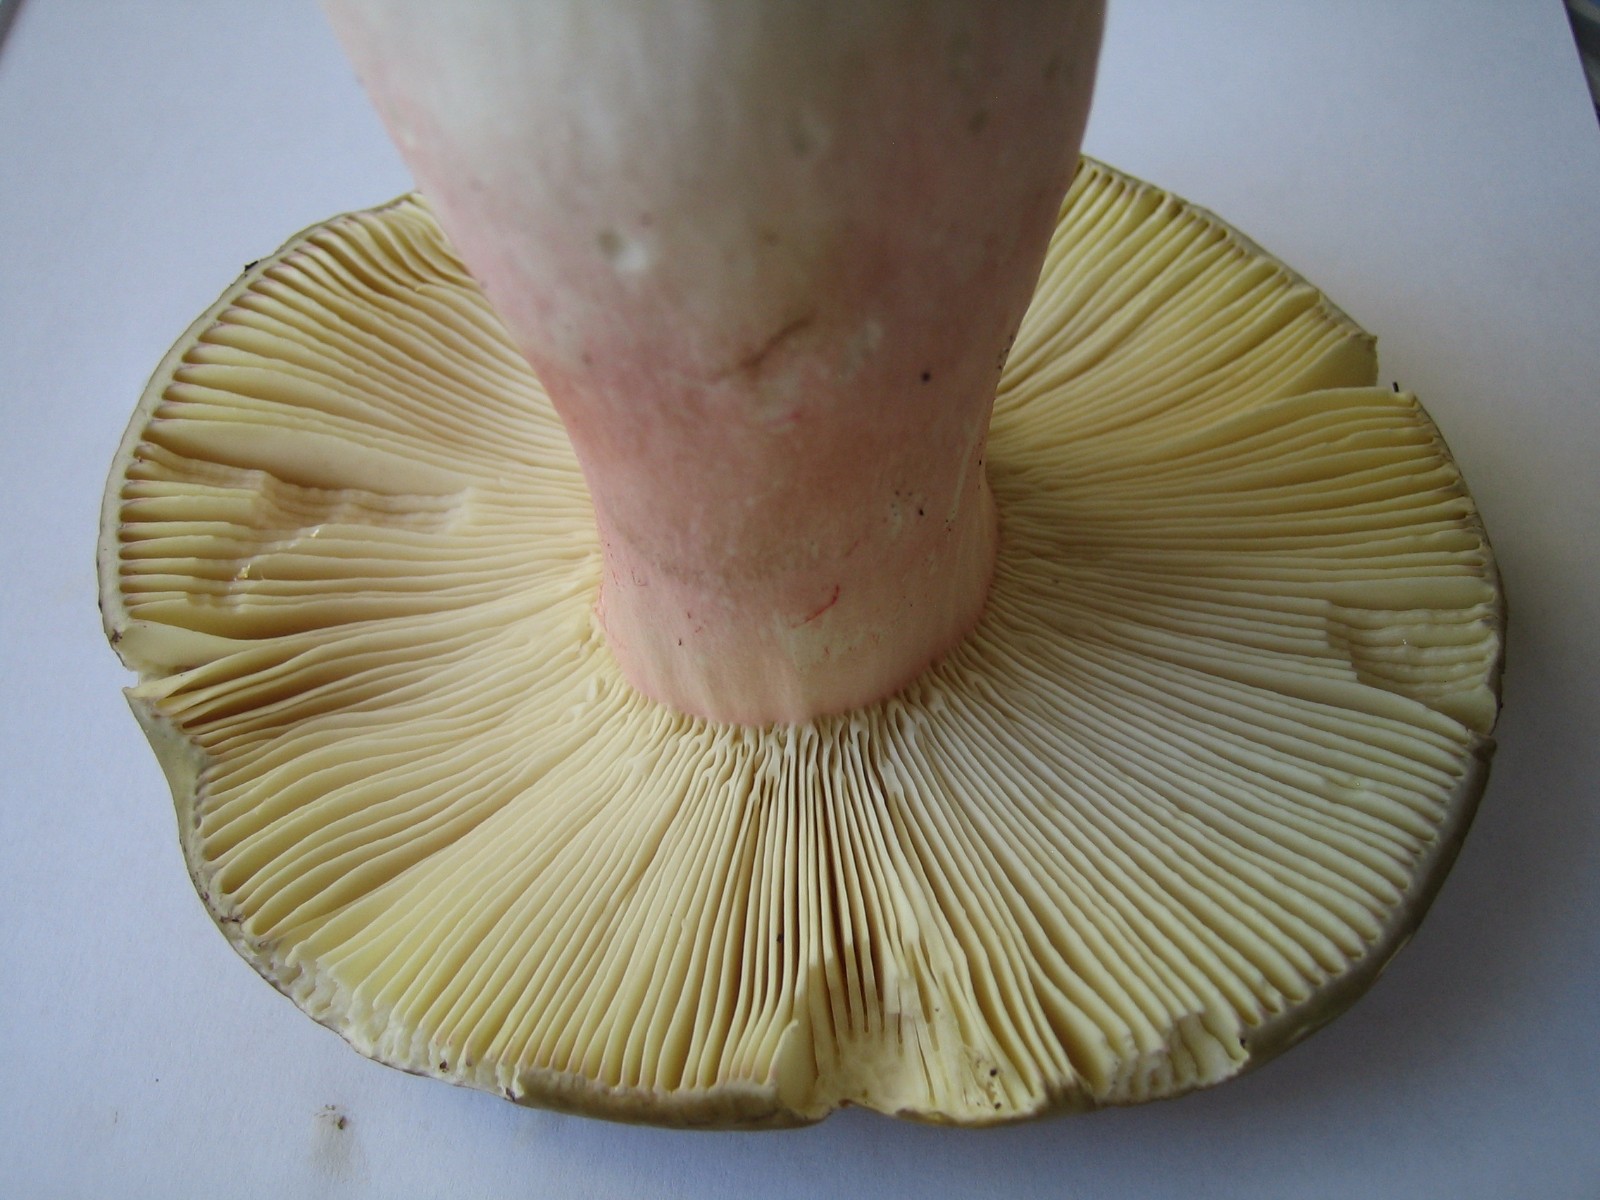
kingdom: Fungi
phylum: Basidiomycota
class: Agaricomycetes
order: Russulales
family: Russulaceae
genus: Russula
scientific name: Russula olivacea
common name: stor skørhat
